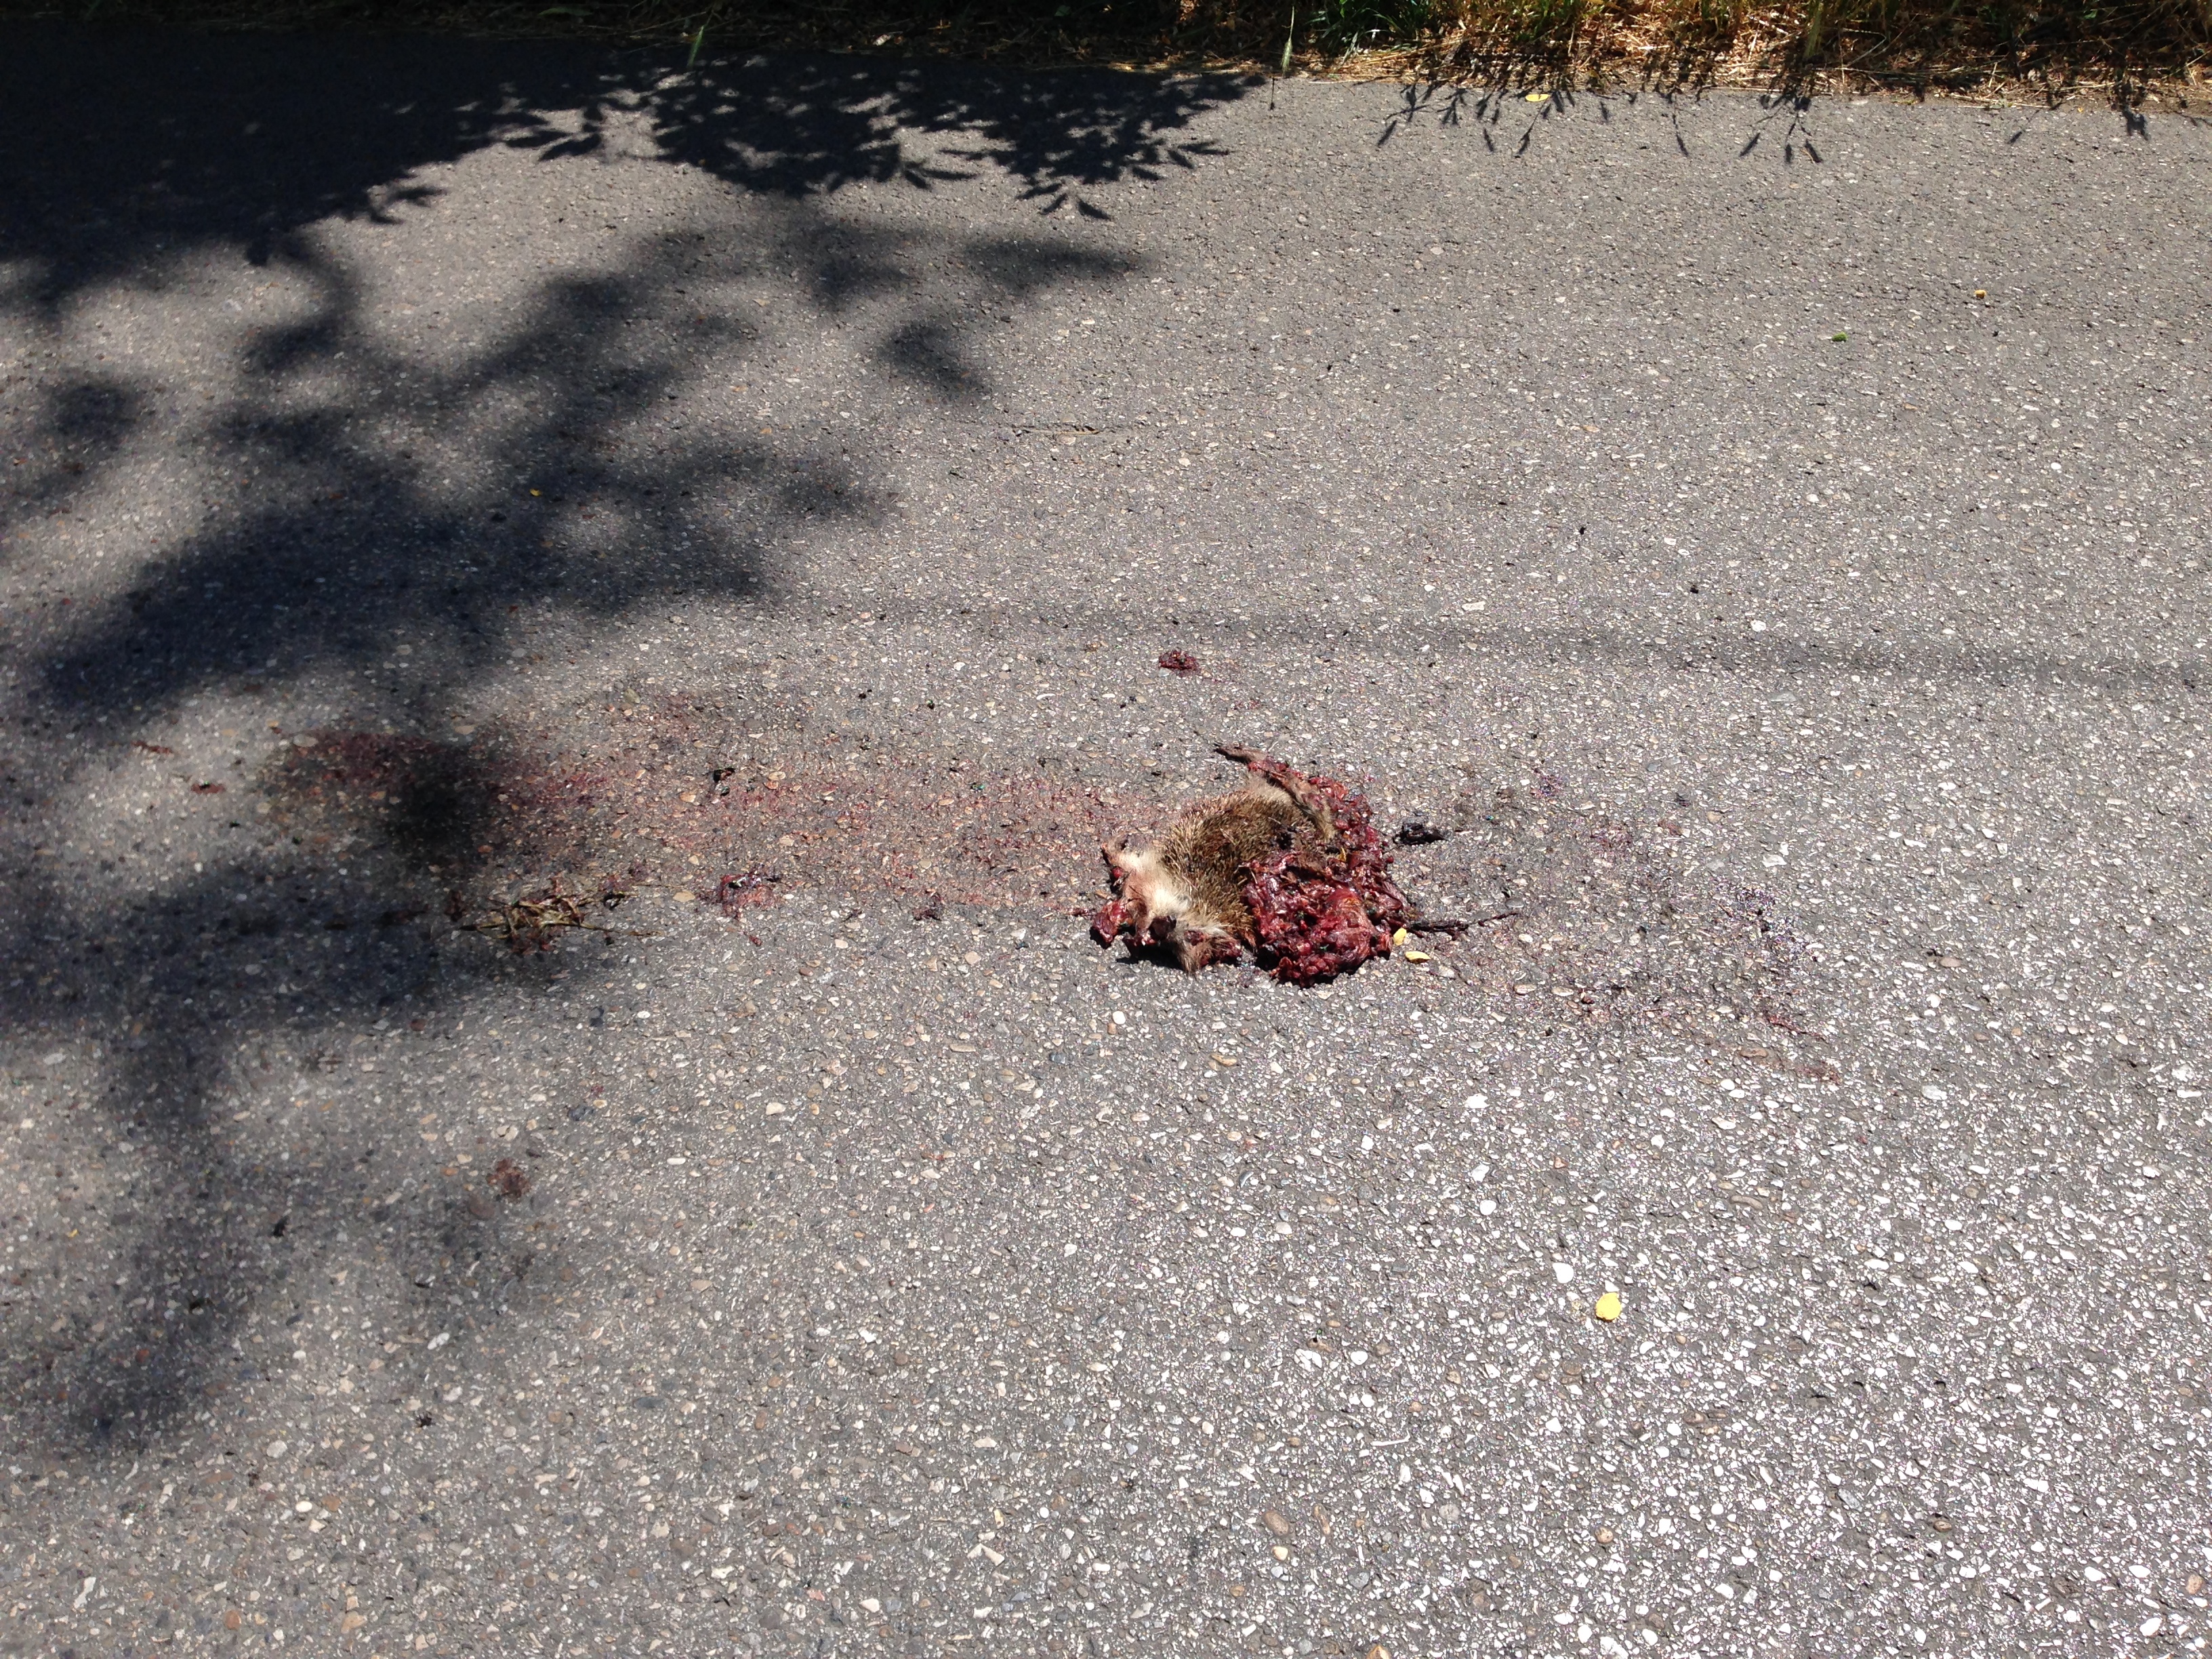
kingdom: Animalia
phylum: Chordata
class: Mammalia
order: Erinaceomorpha
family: Erinaceidae
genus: Erinaceus
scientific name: Erinaceus
